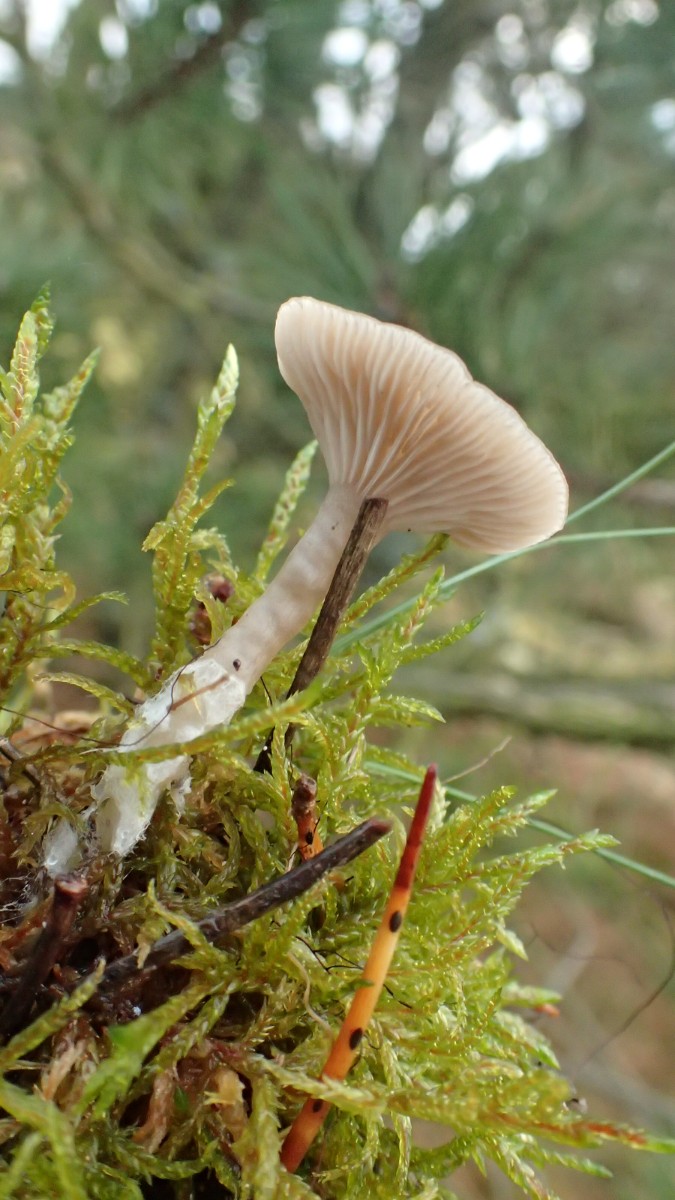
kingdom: Fungi
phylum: Basidiomycota
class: Agaricomycetes
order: Agaricales
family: Tricholomataceae
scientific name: Tricholomataceae
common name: ridderhatfamilien
